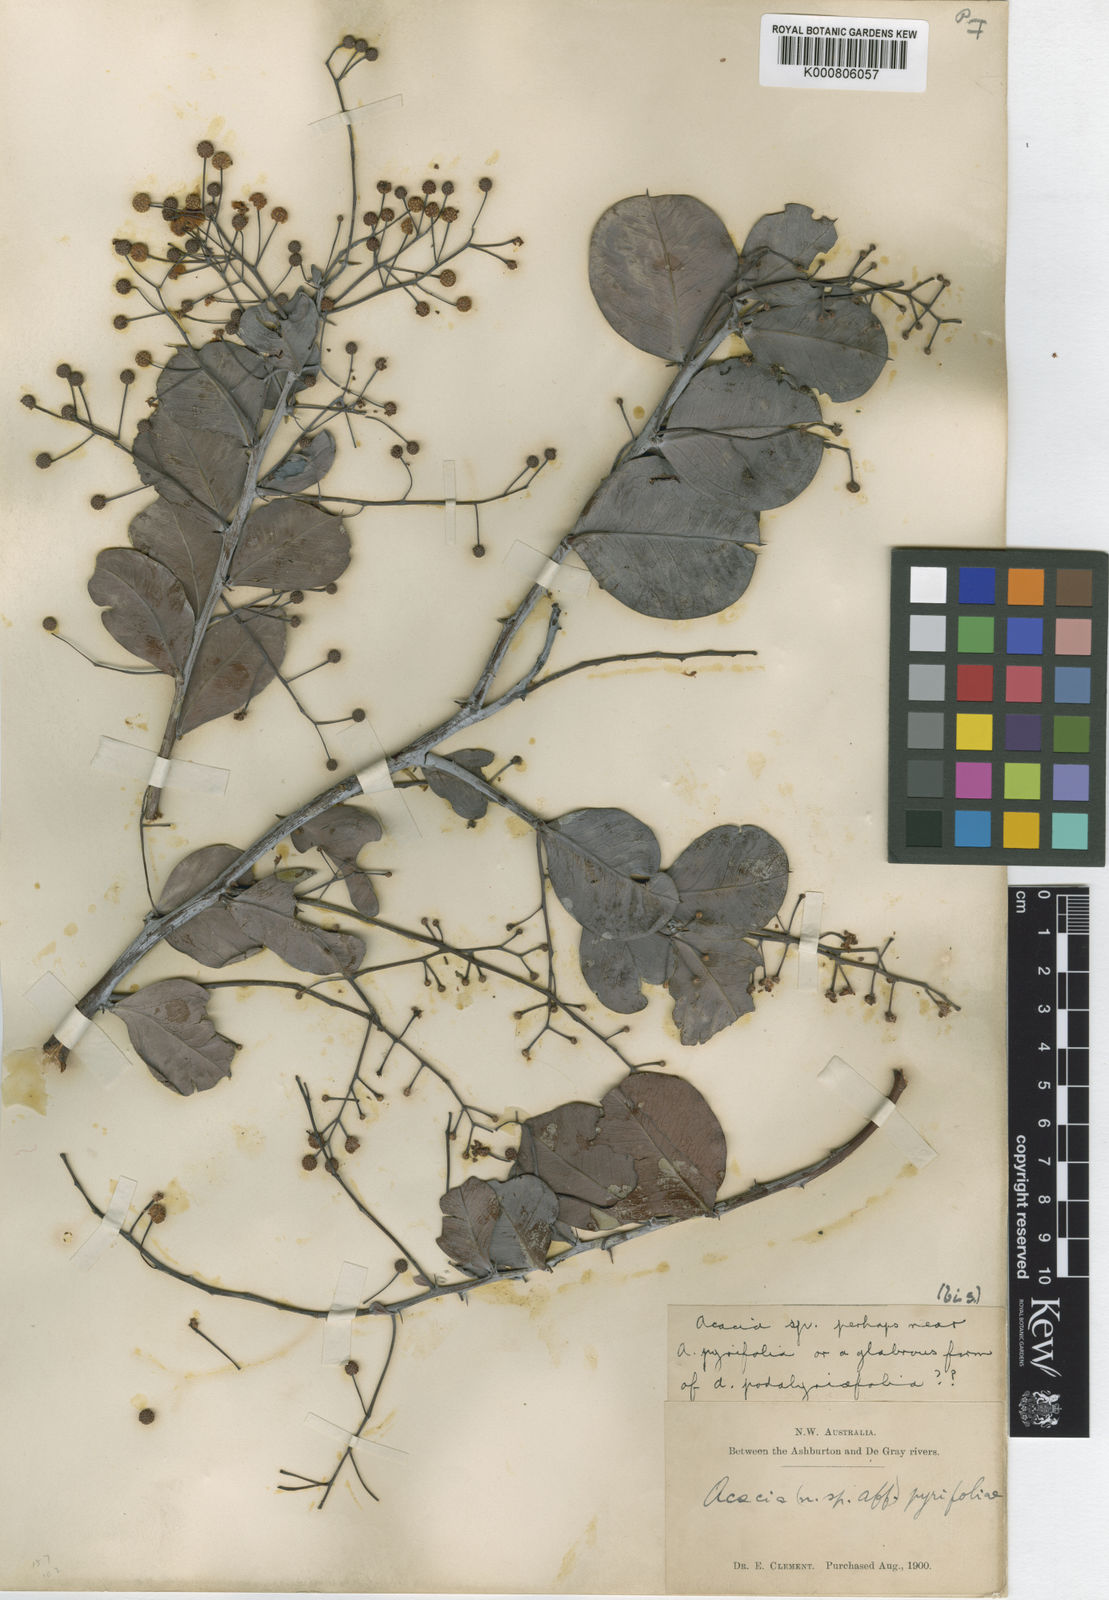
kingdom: Plantae
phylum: Tracheophyta
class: Magnoliopsida
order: Fabales
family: Fabaceae
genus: Acacia
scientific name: Acacia pyrifolia
